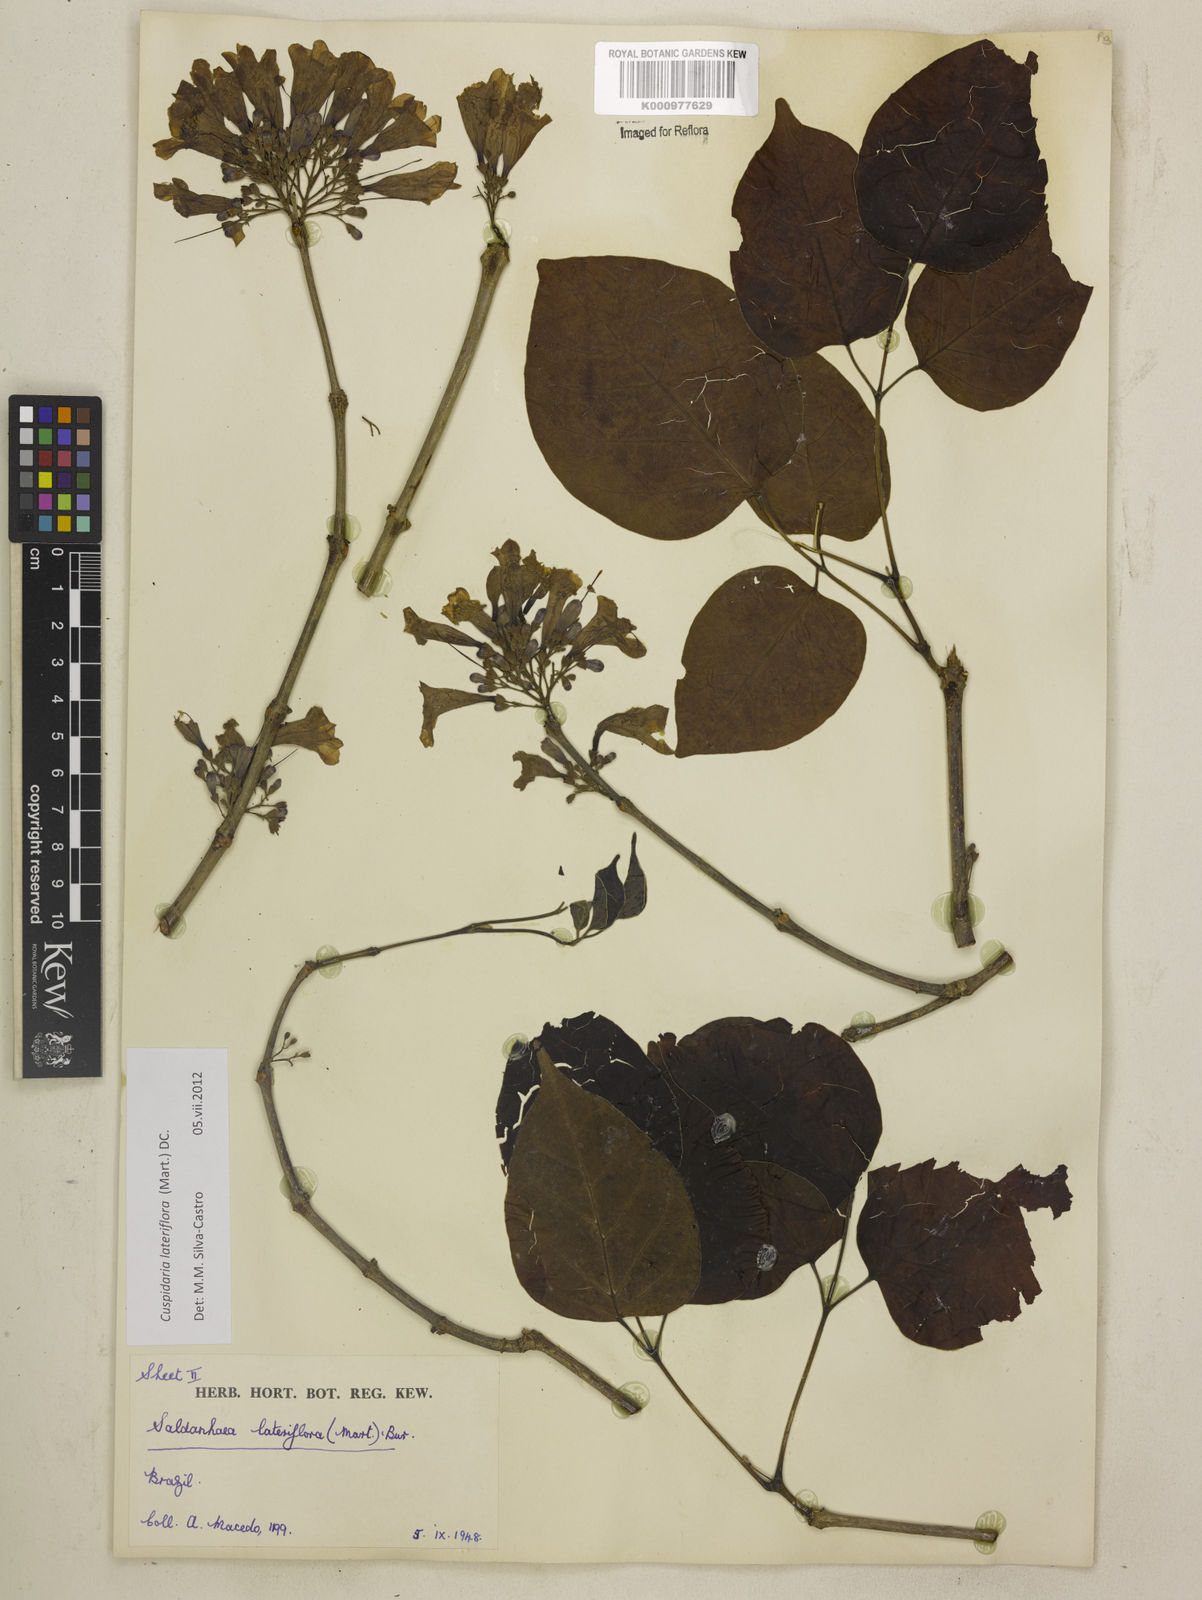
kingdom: Plantae
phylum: Tracheophyta
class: Magnoliopsida
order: Lamiales
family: Bignoniaceae
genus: Cuspidaria
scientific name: Cuspidaria lateriflora
